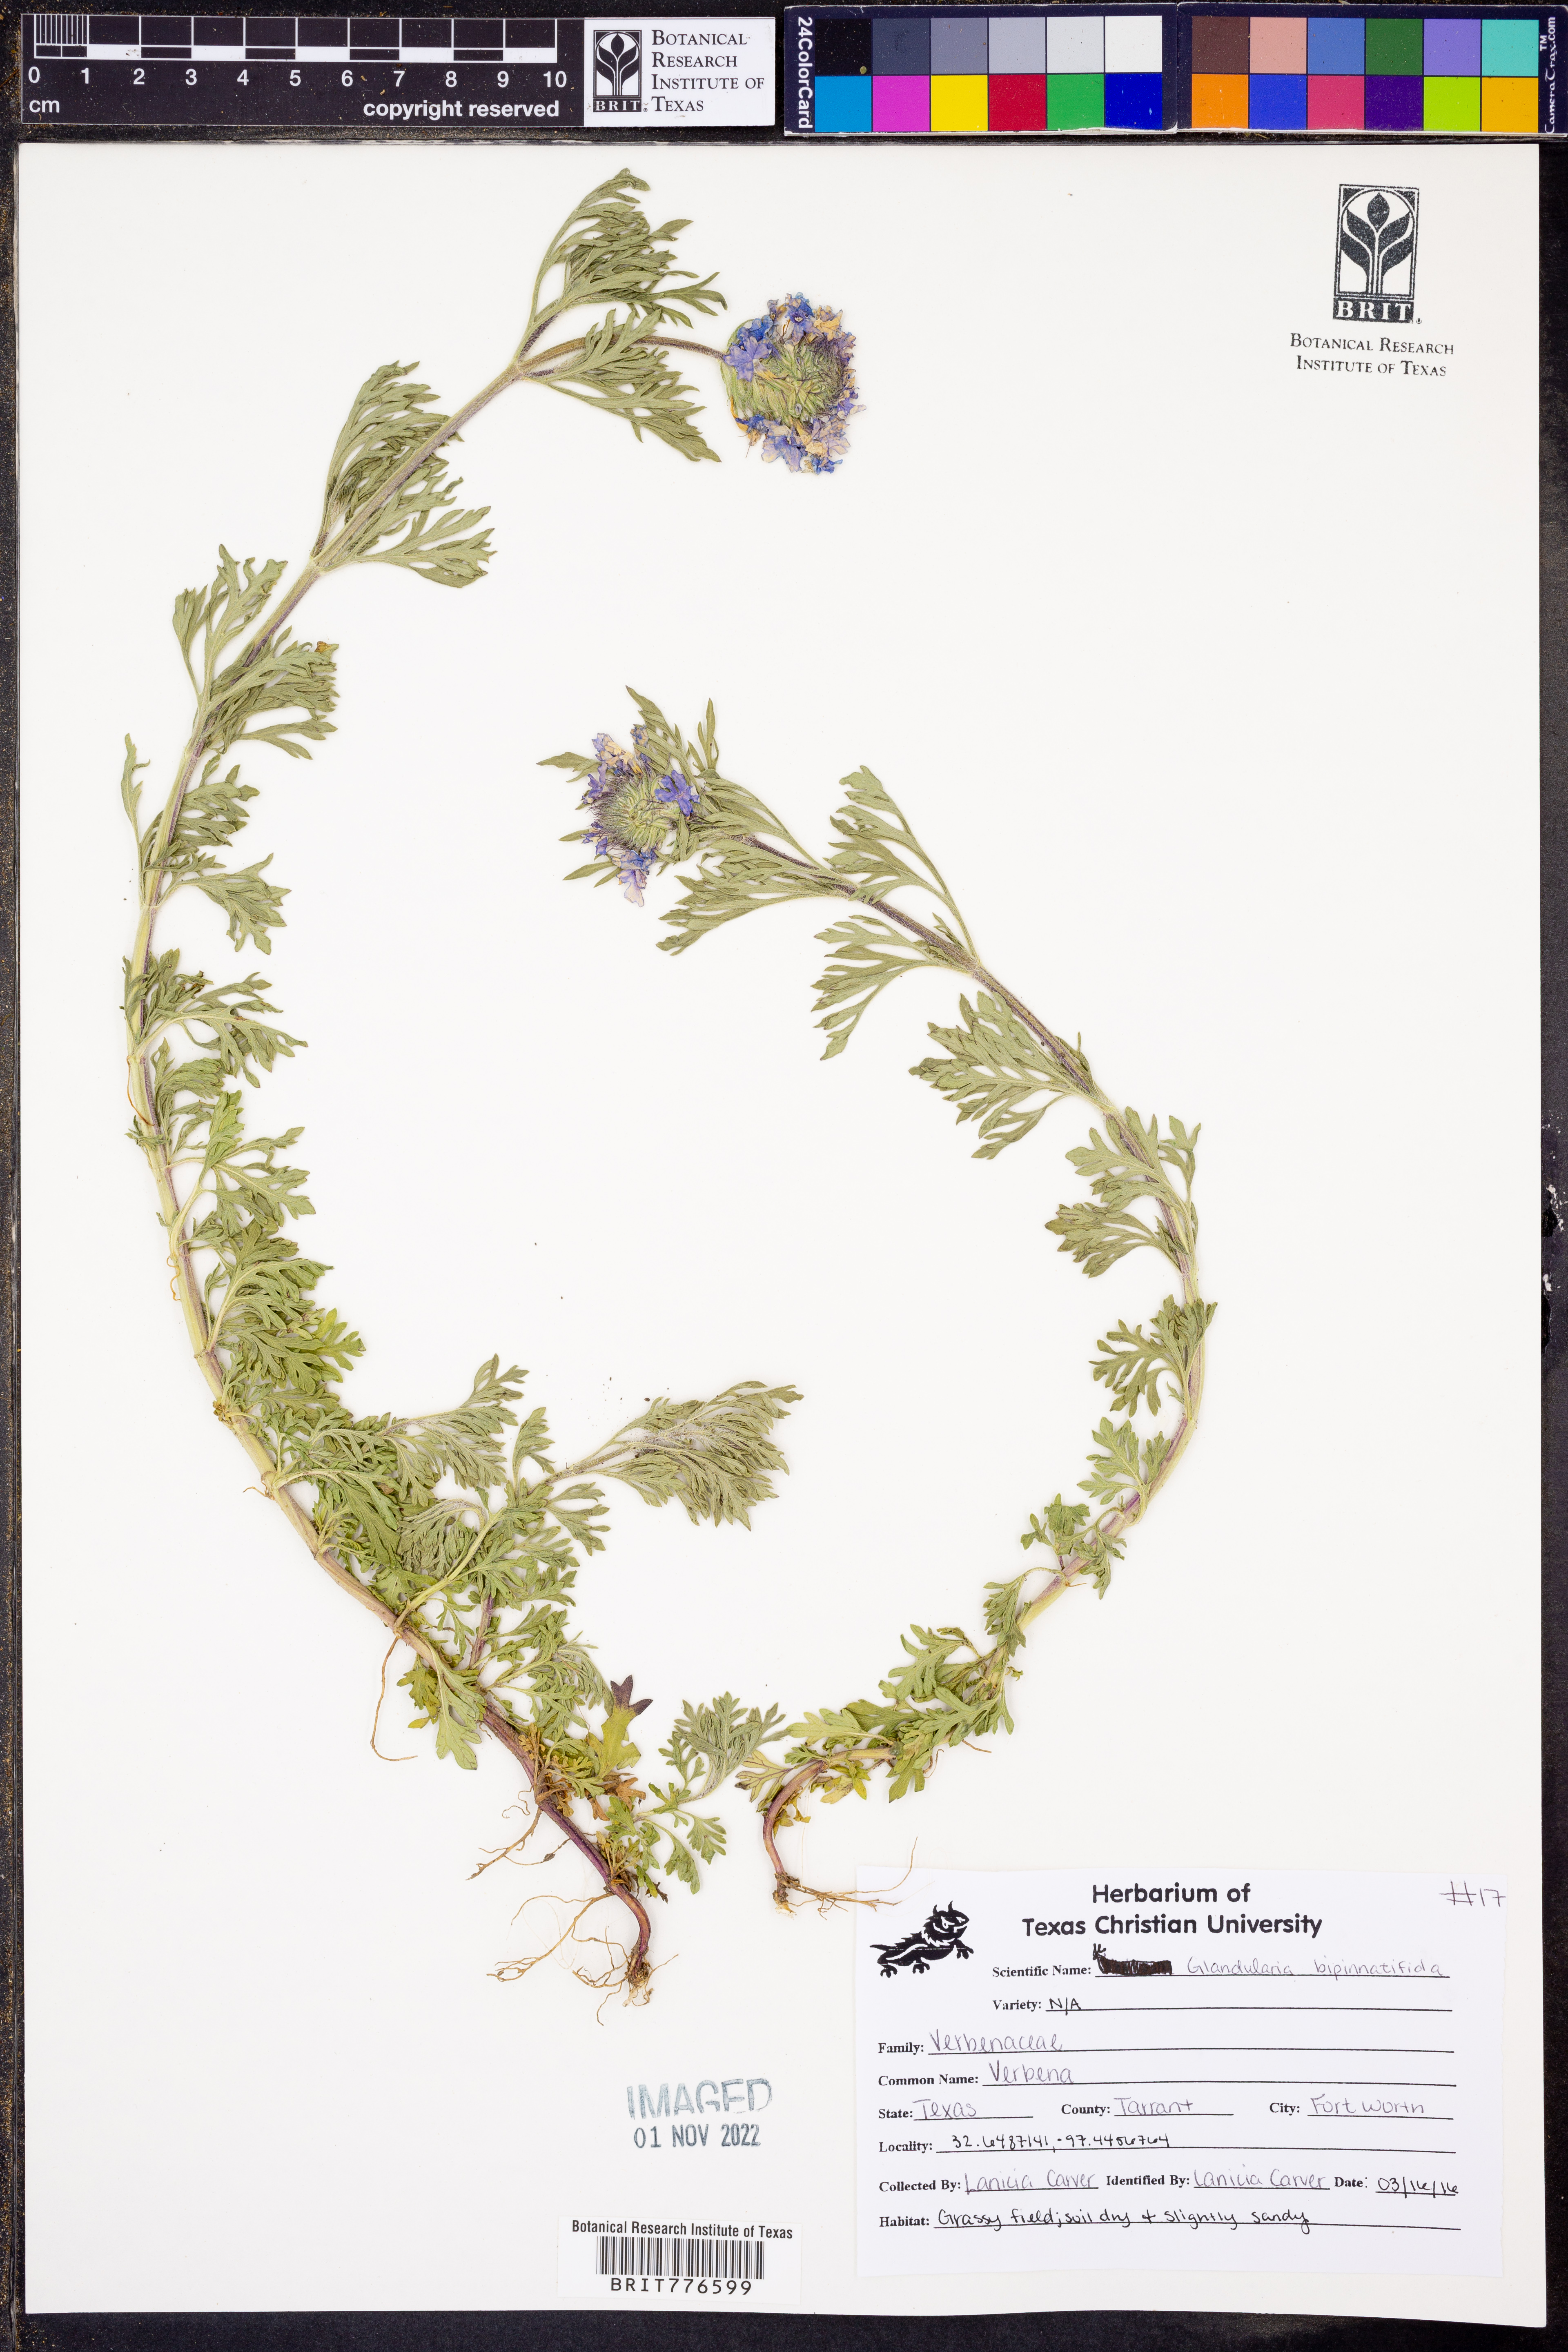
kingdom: Plantae
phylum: Tracheophyta
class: Magnoliopsida
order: Lamiales
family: Verbenaceae
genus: Verbena
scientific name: Verbena bipinnatifida
